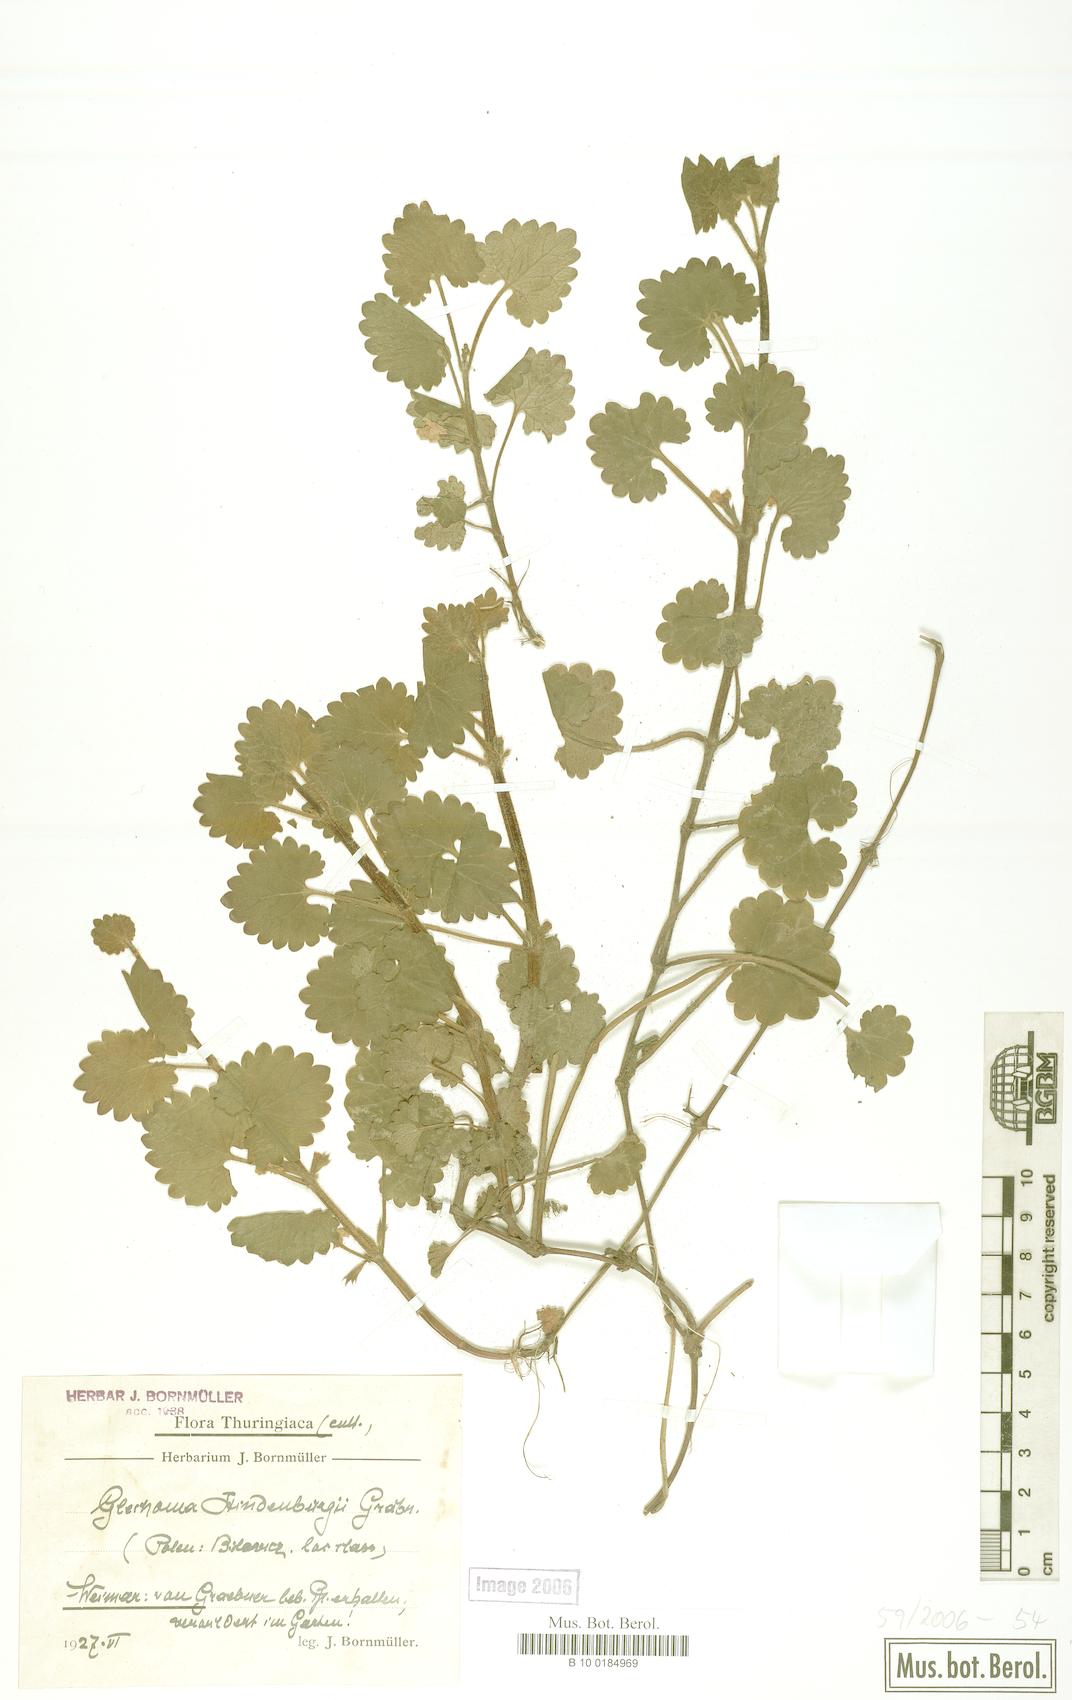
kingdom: Plantae
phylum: Tracheophyta
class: Magnoliopsida
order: Lamiales
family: Lamiaceae
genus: Glechoma
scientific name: Glechoma pannonica
